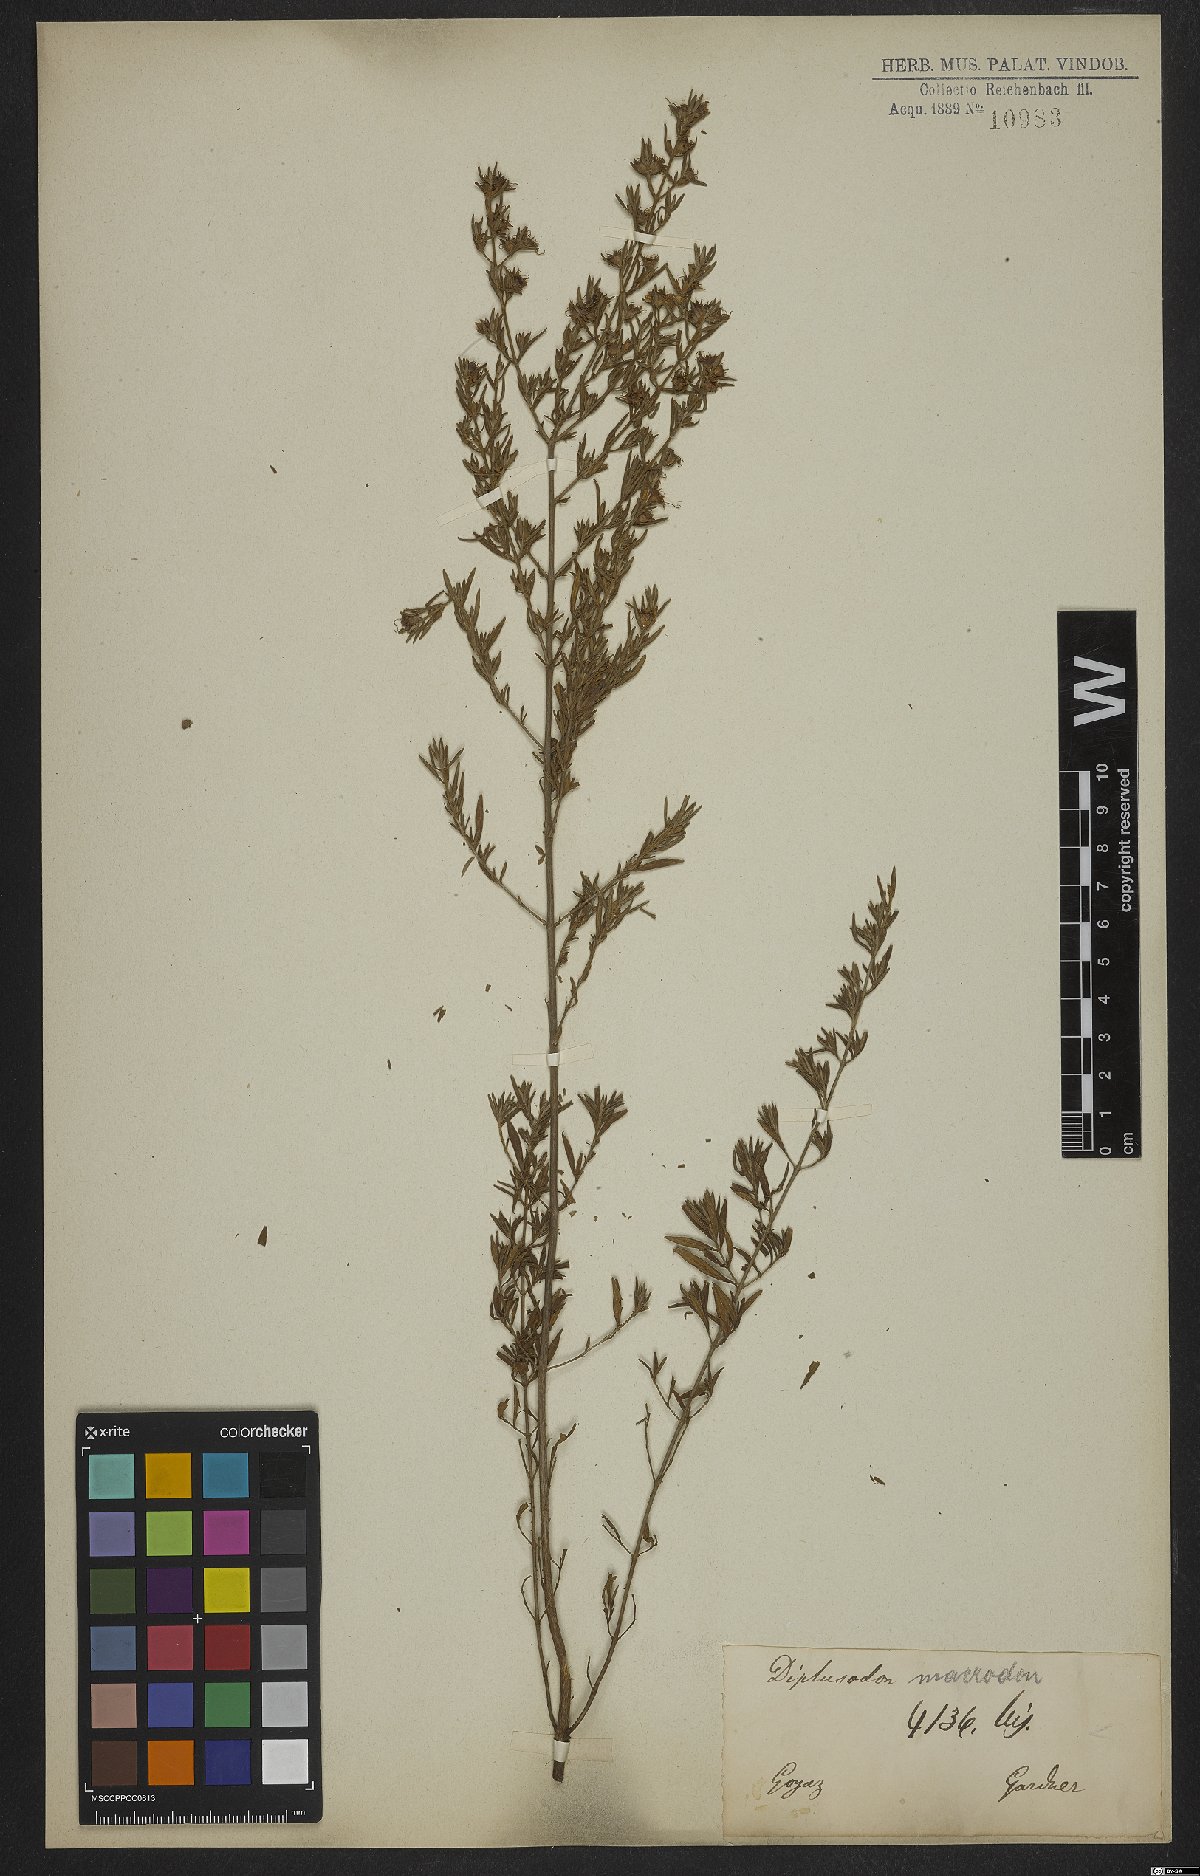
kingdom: Plantae
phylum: Tracheophyta
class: Magnoliopsida
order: Myrtales
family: Lythraceae
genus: Diplusodon
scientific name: Diplusodon macrodon
